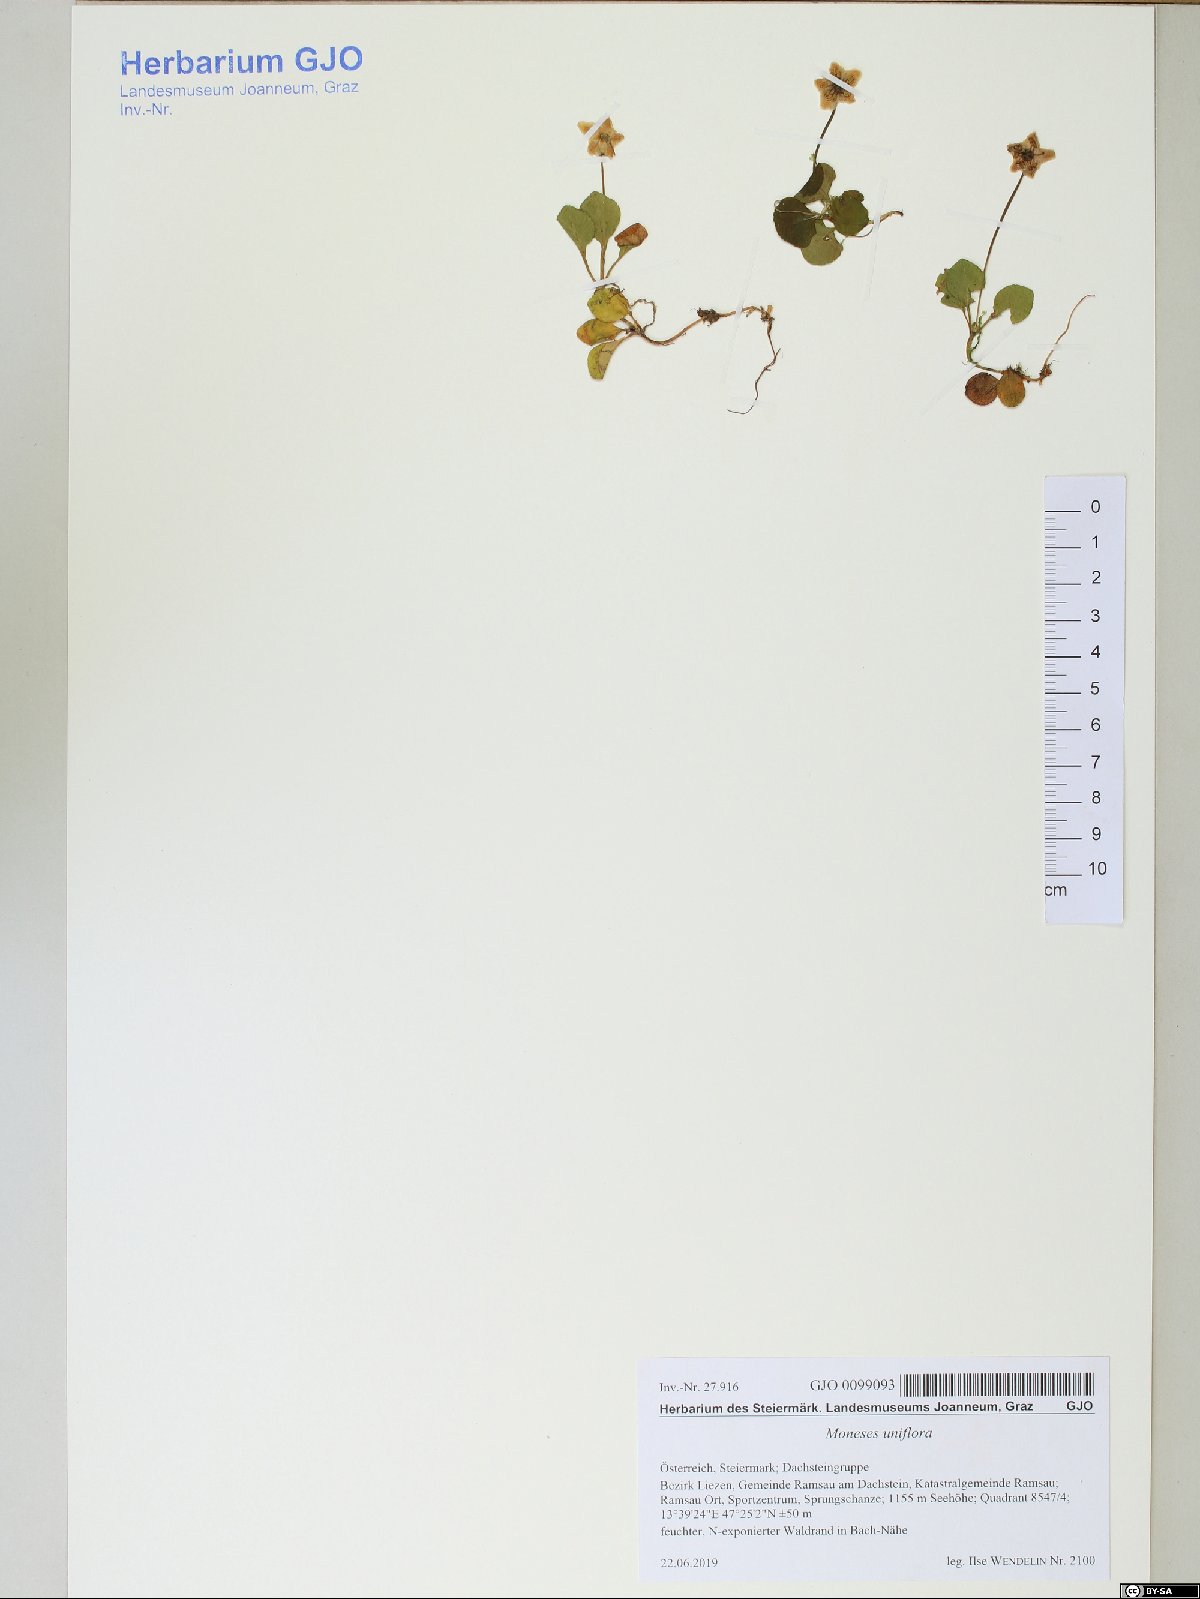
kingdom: Plantae
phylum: Tracheophyta
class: Magnoliopsida
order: Ericales
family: Ericaceae
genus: Moneses
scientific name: Moneses uniflora
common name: One-flowered wintergreen
